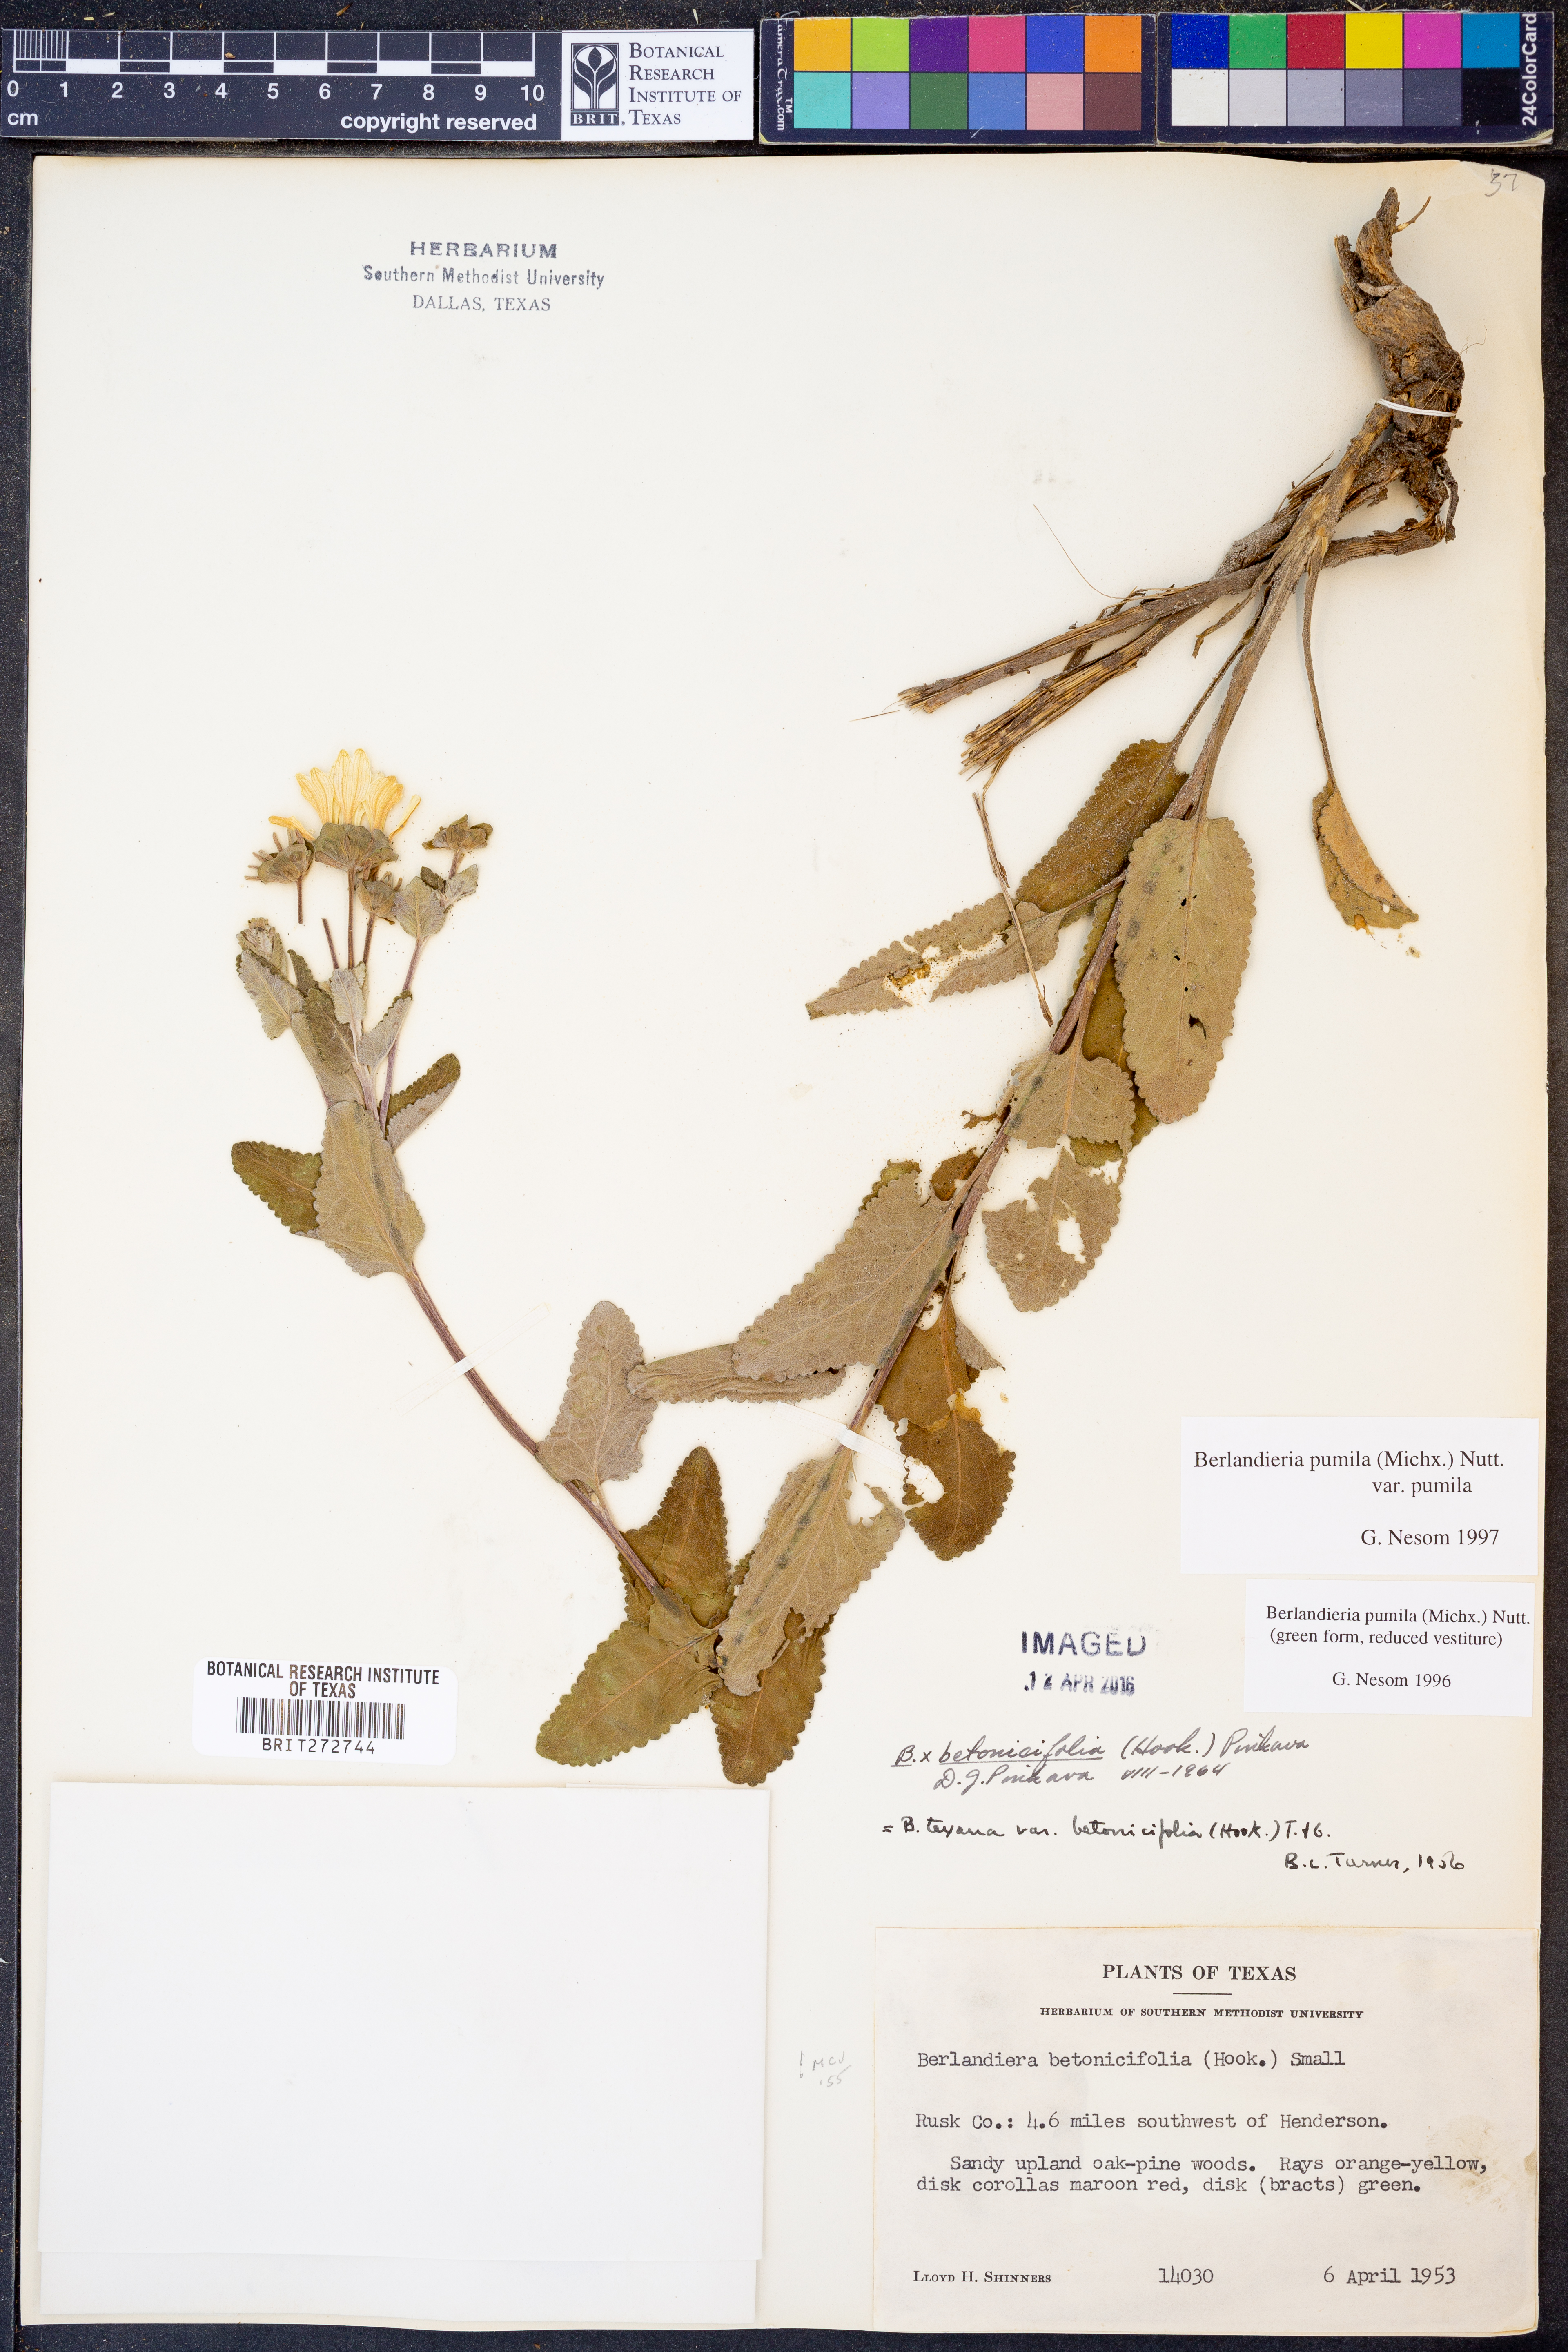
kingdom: Plantae
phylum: Tracheophyta
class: Magnoliopsida
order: Asterales
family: Asteraceae
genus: Berlandiera
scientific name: Berlandiera pumila
